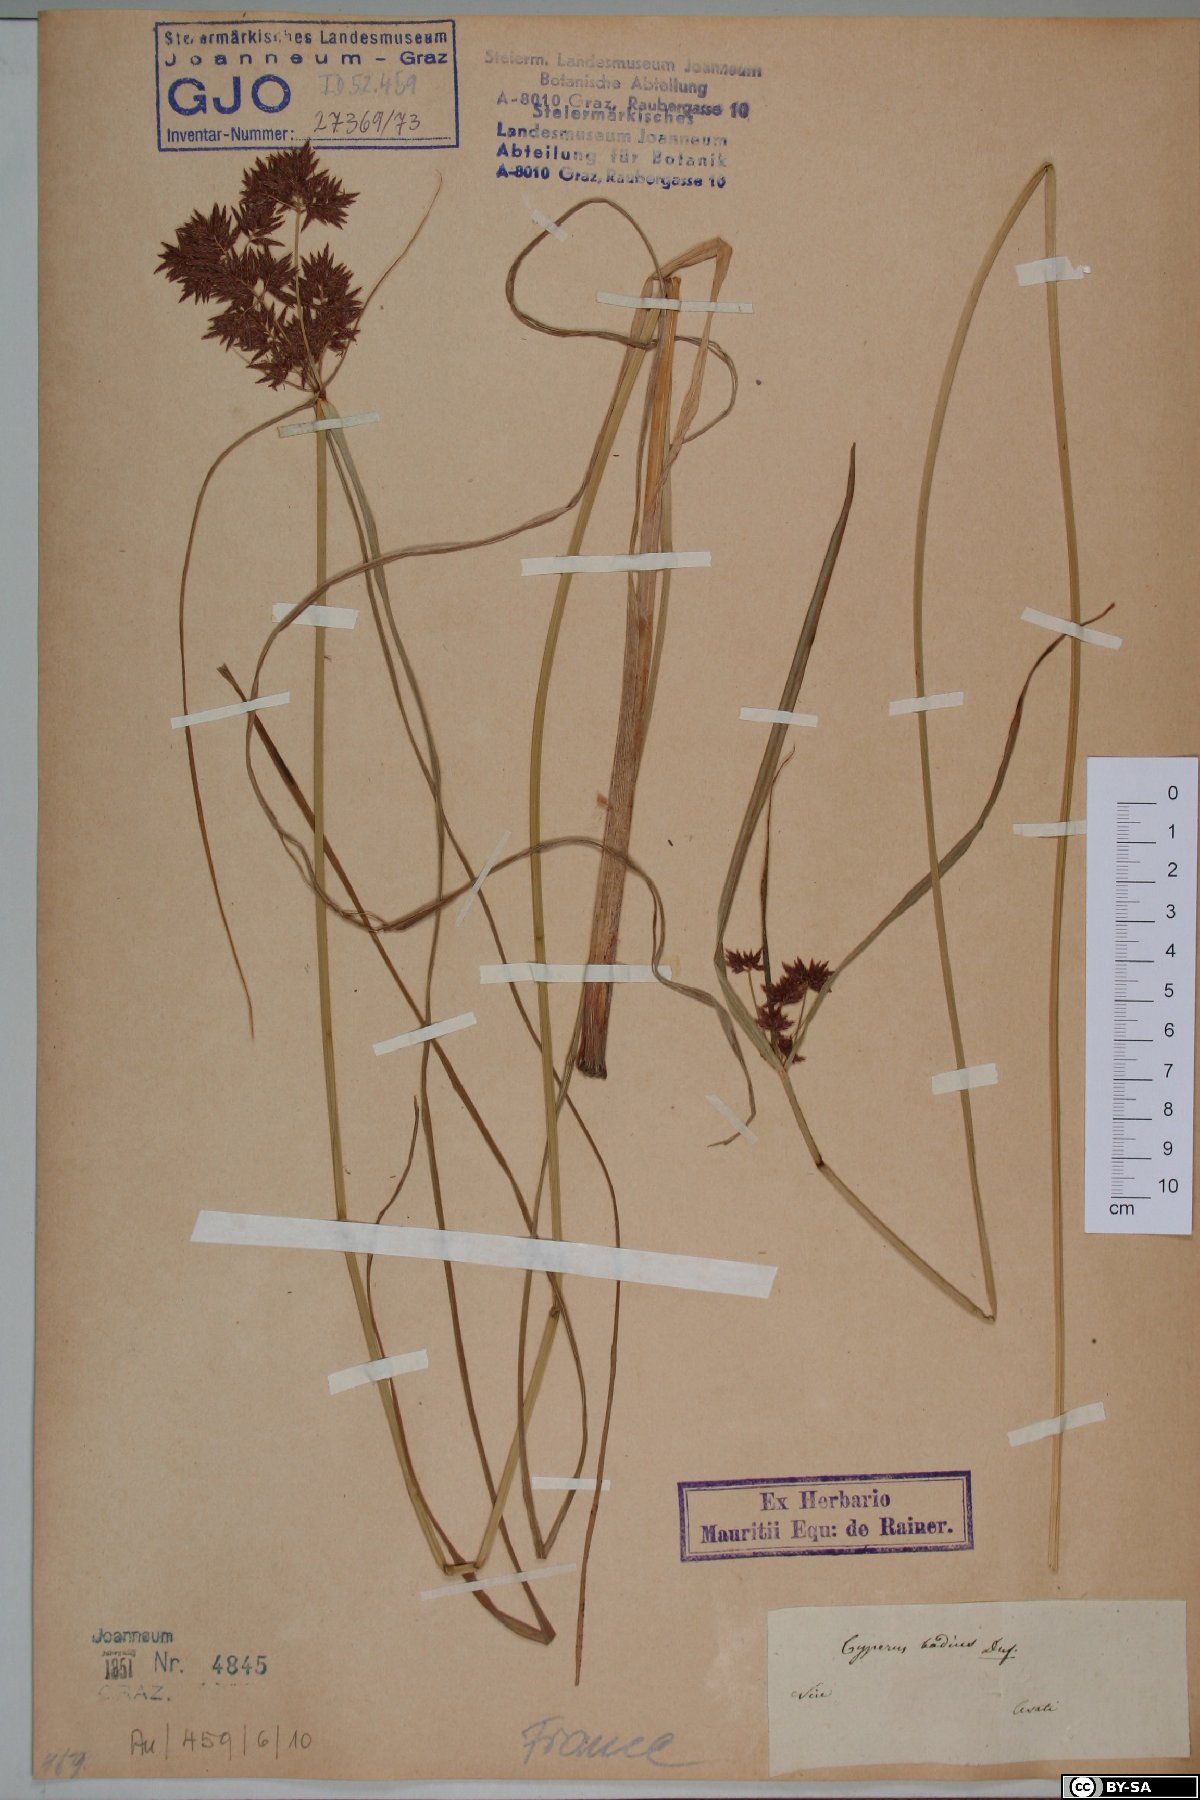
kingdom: Plantae
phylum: Tracheophyta
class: Liliopsida
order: Poales
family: Cyperaceae
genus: Cyperus
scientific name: Cyperus longus
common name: Galingale
